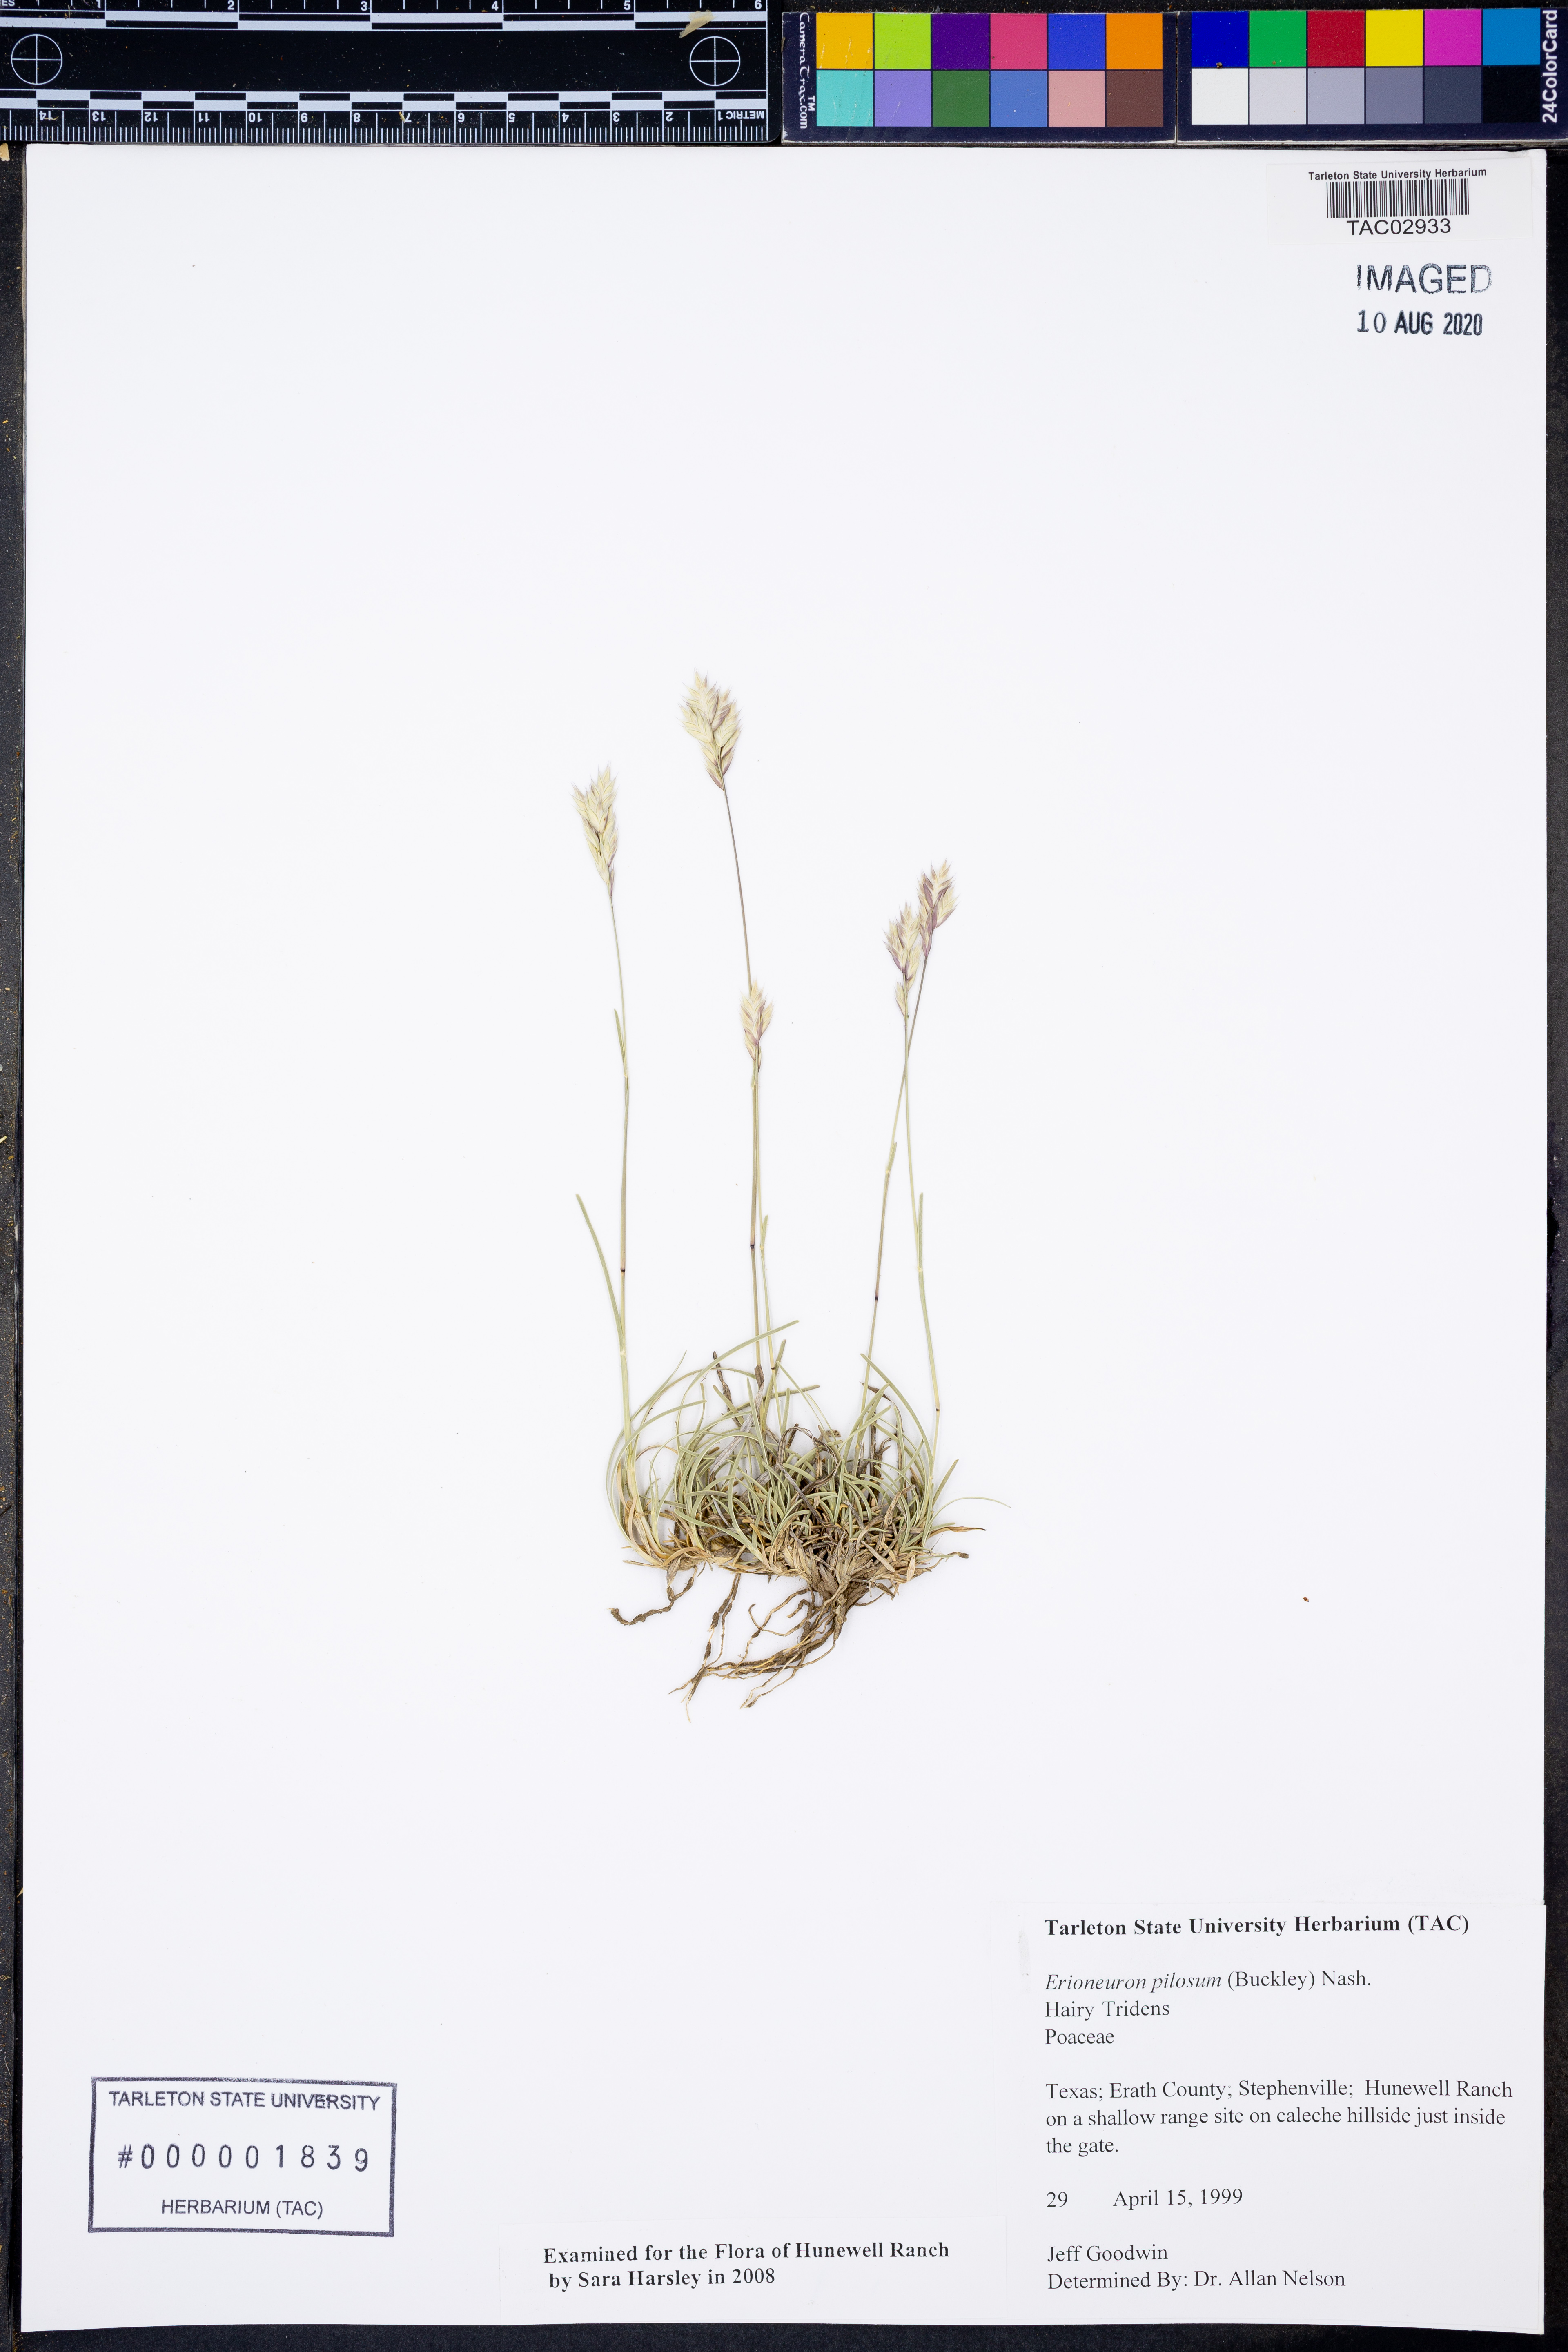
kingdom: Plantae
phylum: Tracheophyta
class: Liliopsida
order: Poales
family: Poaceae
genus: Erioneuron
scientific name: Erioneuron pilosum
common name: Hairy woolly grass
